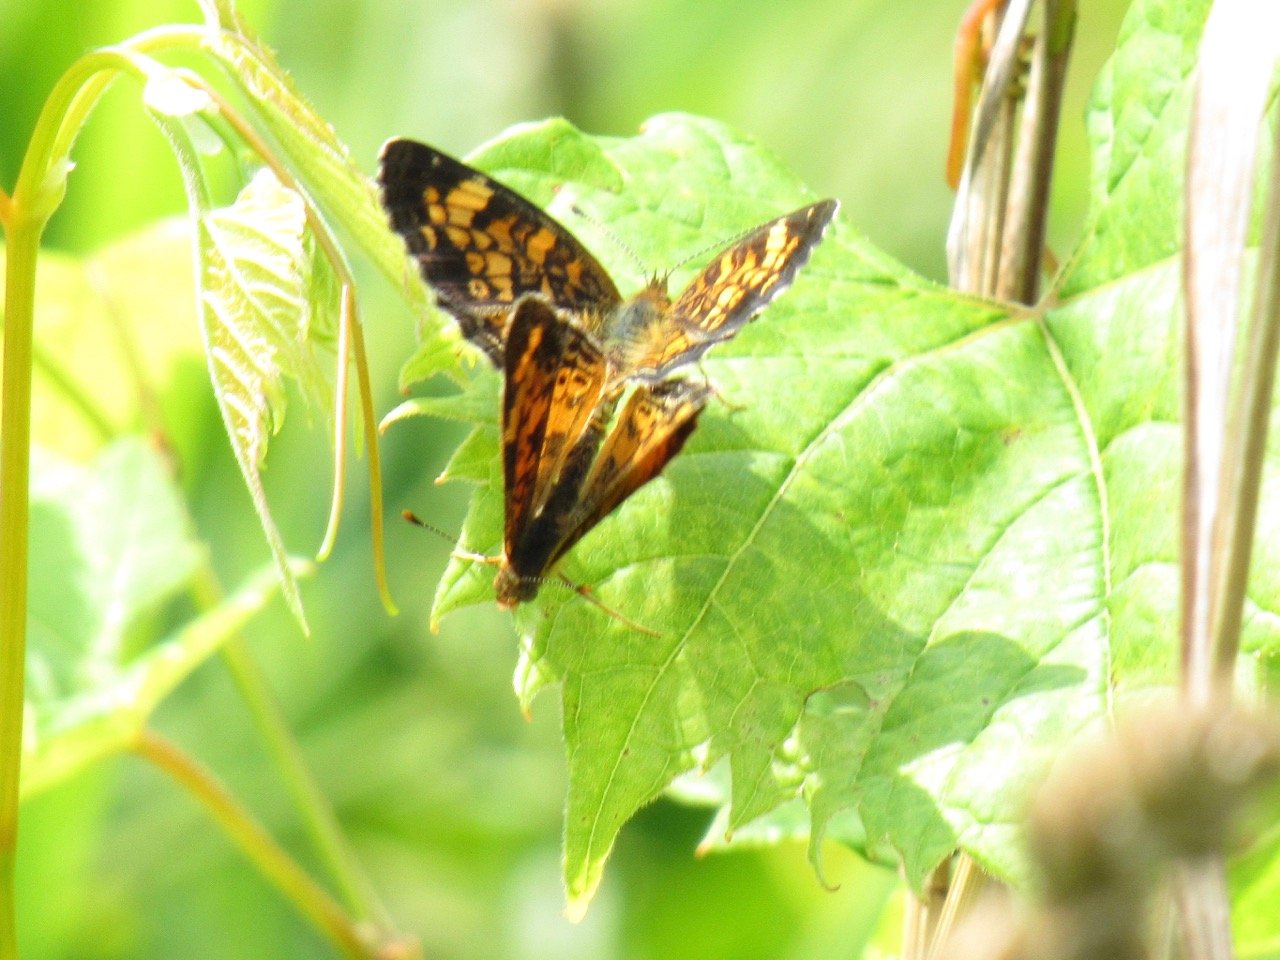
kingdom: Animalia
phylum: Arthropoda
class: Insecta
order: Lepidoptera
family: Nymphalidae
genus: Phyciodes
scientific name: Phyciodes tharos
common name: Pearl Crescent
